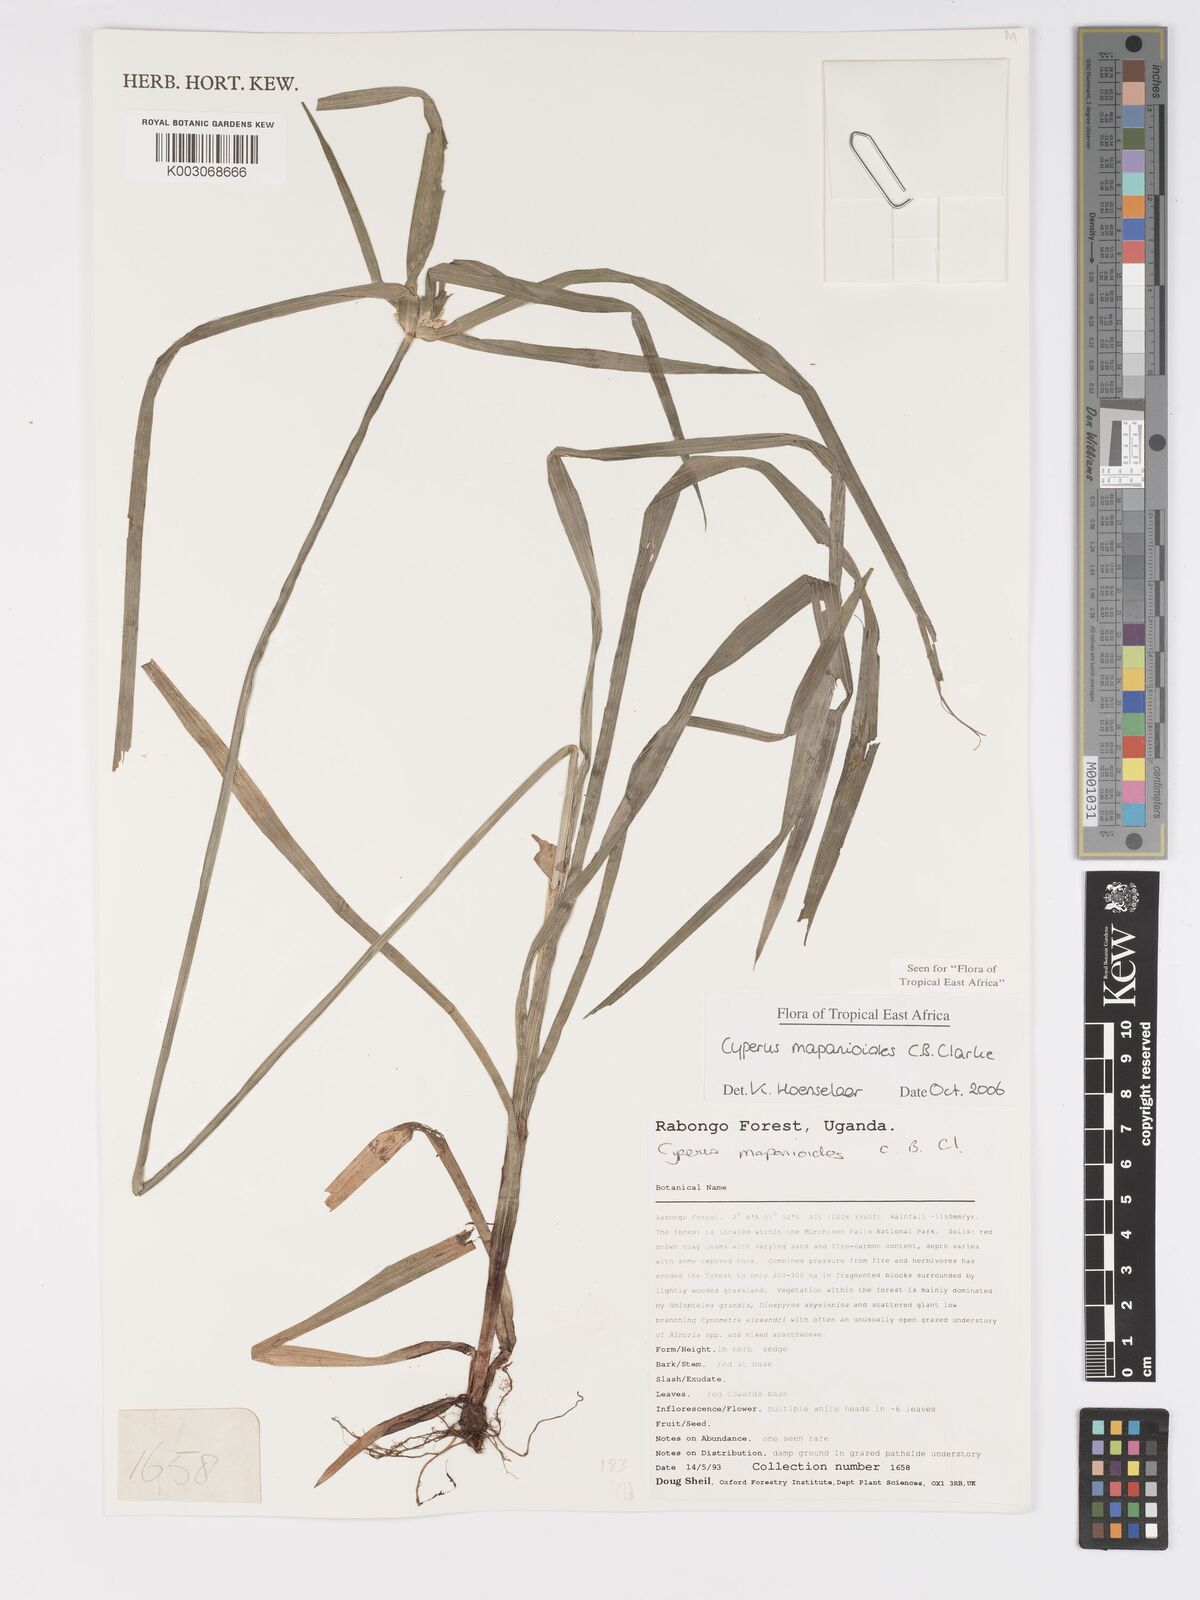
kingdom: Plantae
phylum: Tracheophyta
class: Liliopsida
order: Poales
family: Cyperaceae
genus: Cyperus
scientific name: Cyperus mapanioides
